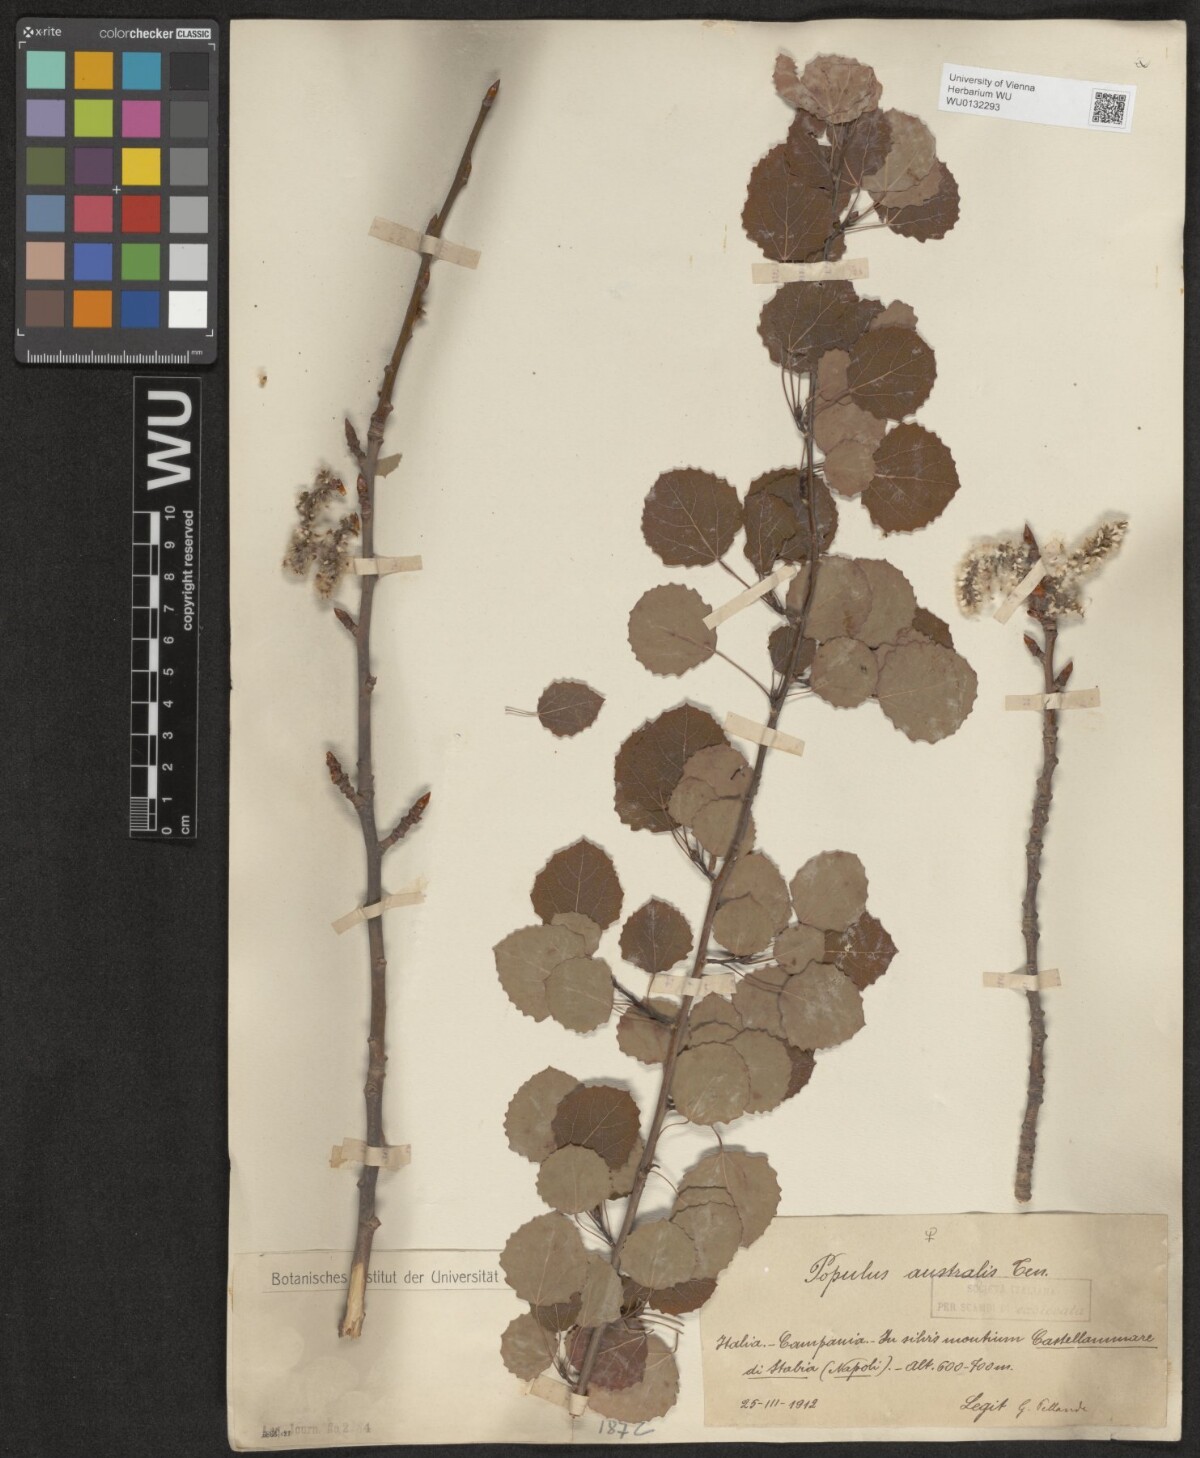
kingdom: Plantae
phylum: Tracheophyta
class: Magnoliopsida
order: Malpighiales
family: Salicaceae
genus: Populus
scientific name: Populus tremula
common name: European aspen
